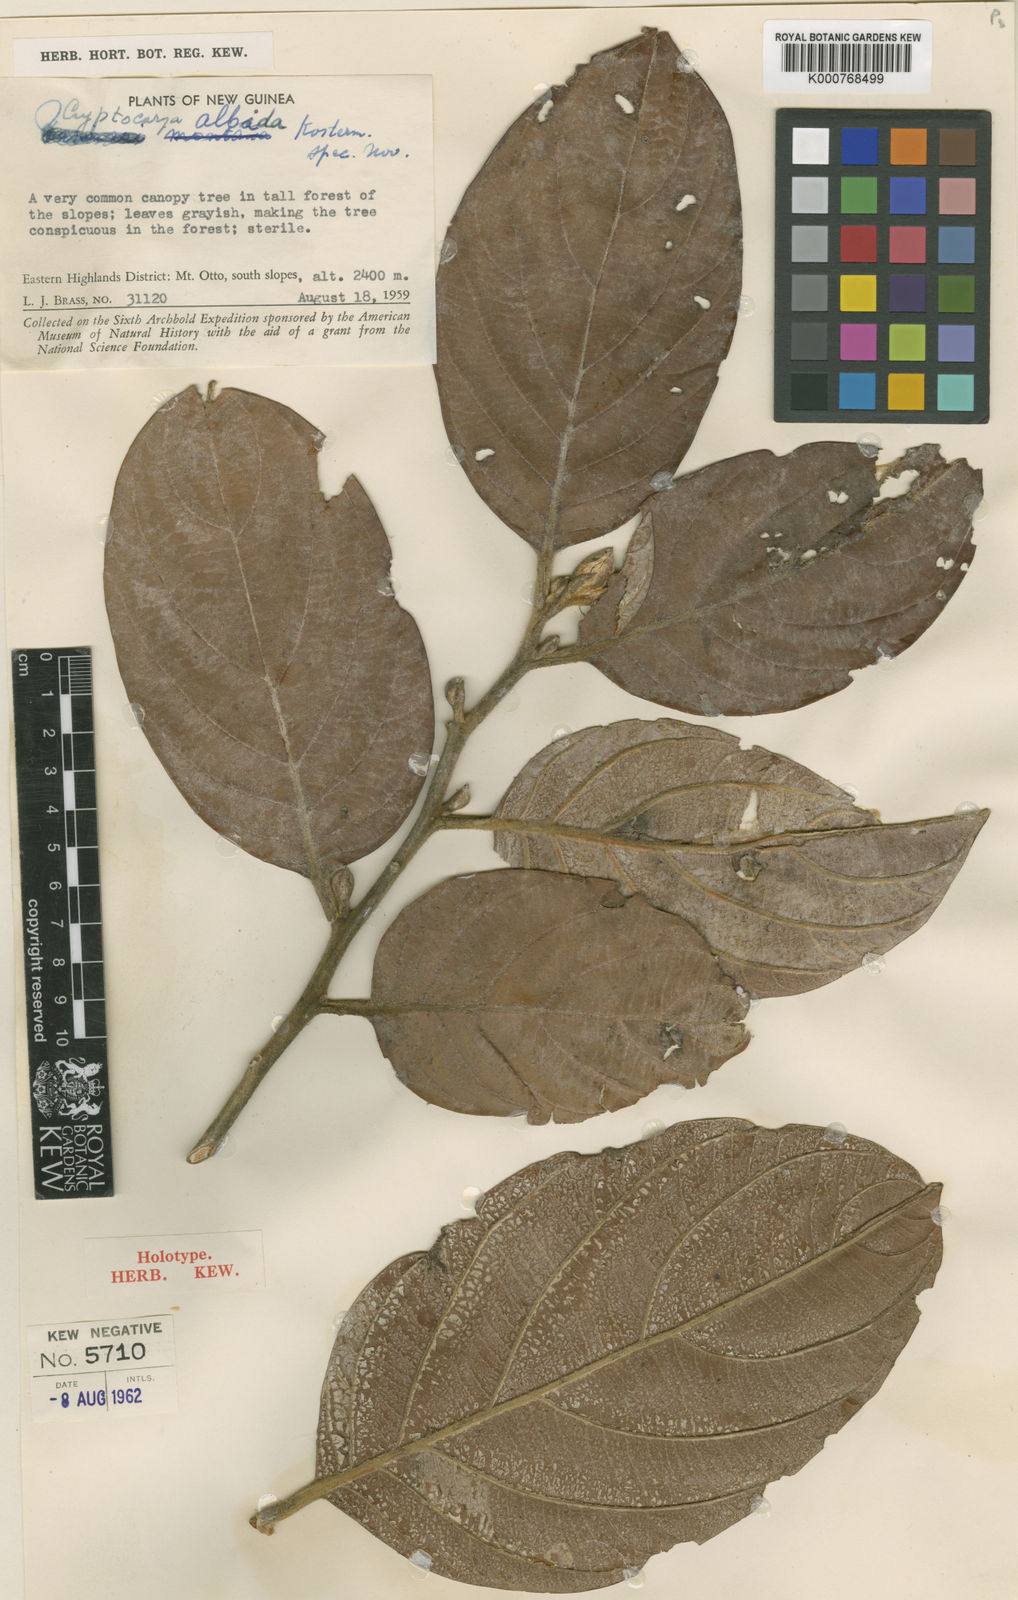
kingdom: Plantae
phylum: Tracheophyta
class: Magnoliopsida
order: Laurales
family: Lauraceae
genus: Cryptocarya
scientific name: Cryptocarya albida
